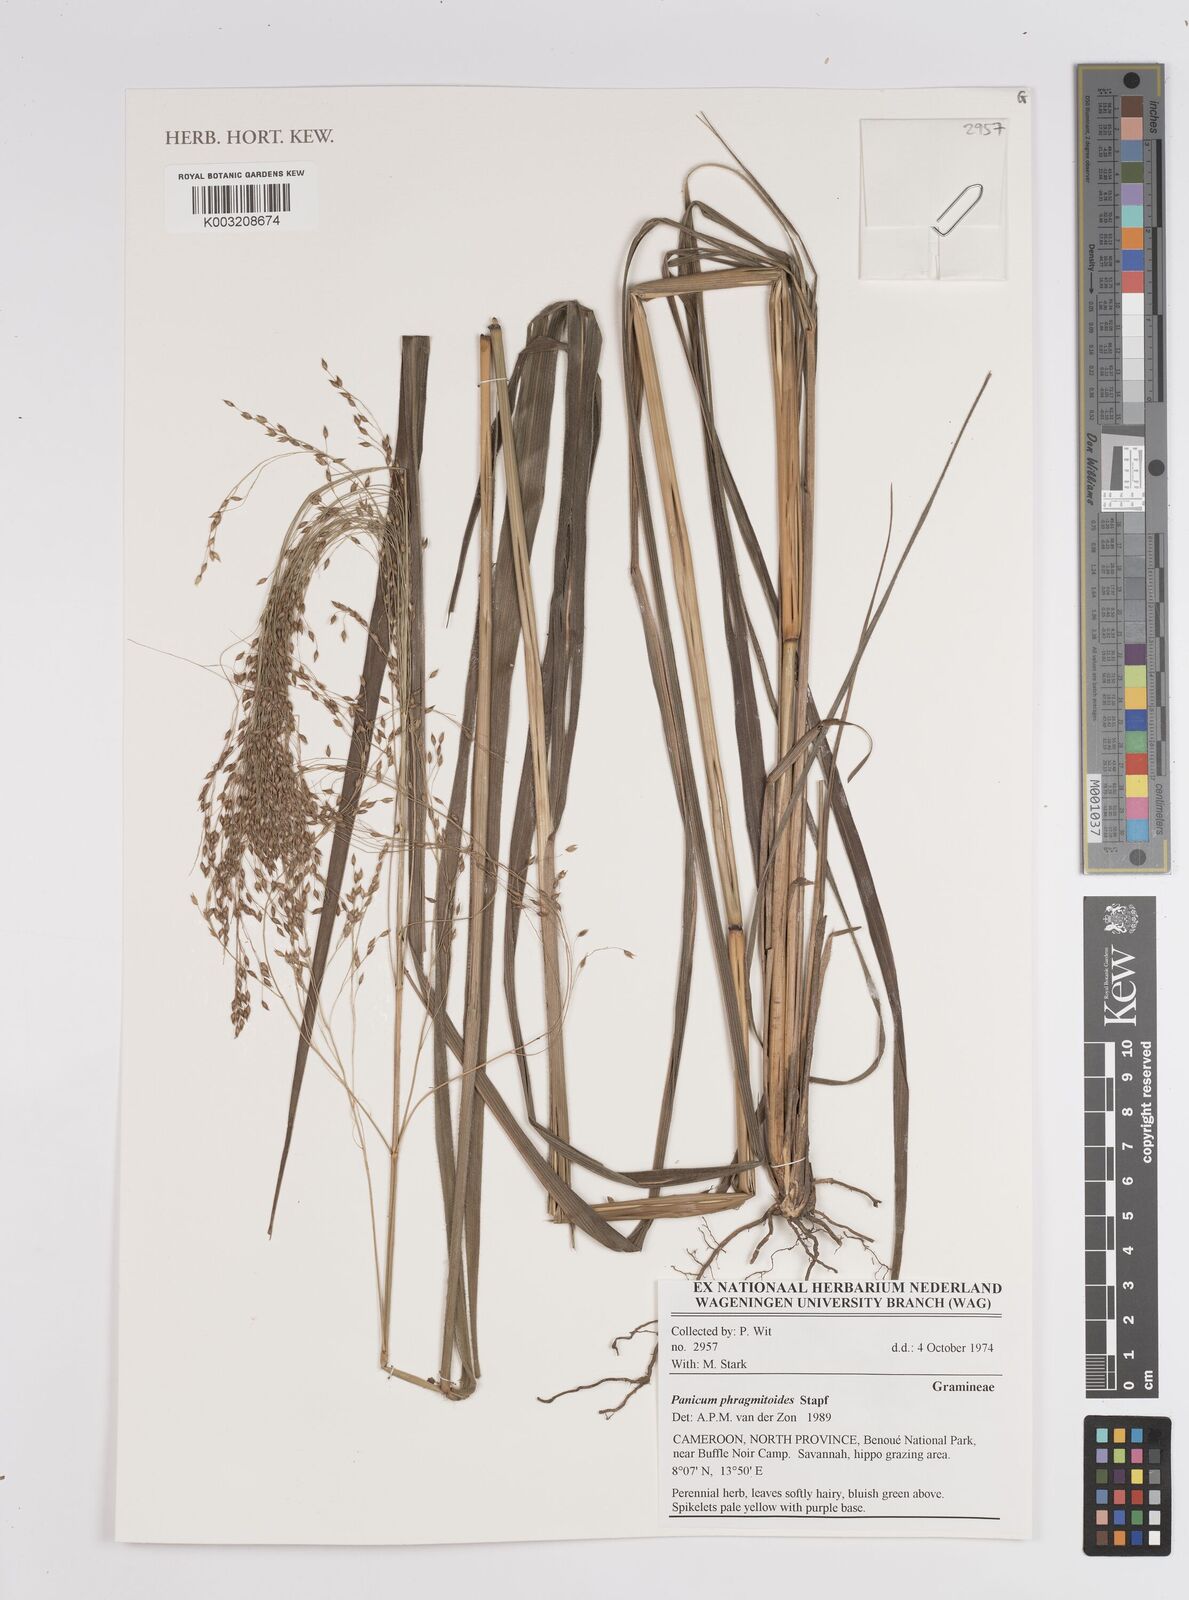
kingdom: Plantae
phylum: Tracheophyta
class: Liliopsida
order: Poales
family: Poaceae
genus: Panicum
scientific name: Panicum phragmitoides
